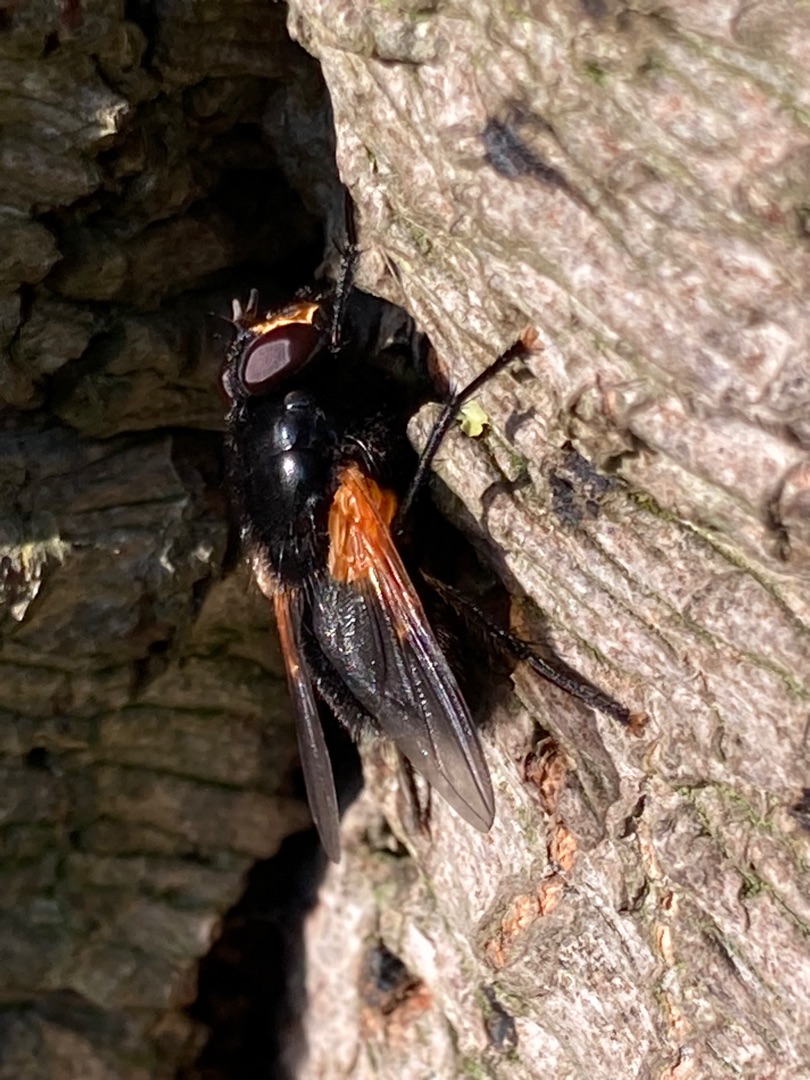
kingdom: Animalia
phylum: Arthropoda
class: Insecta
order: Diptera
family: Muscidae
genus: Mesembrina
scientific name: Mesembrina meridiana
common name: Gulvinget flue
